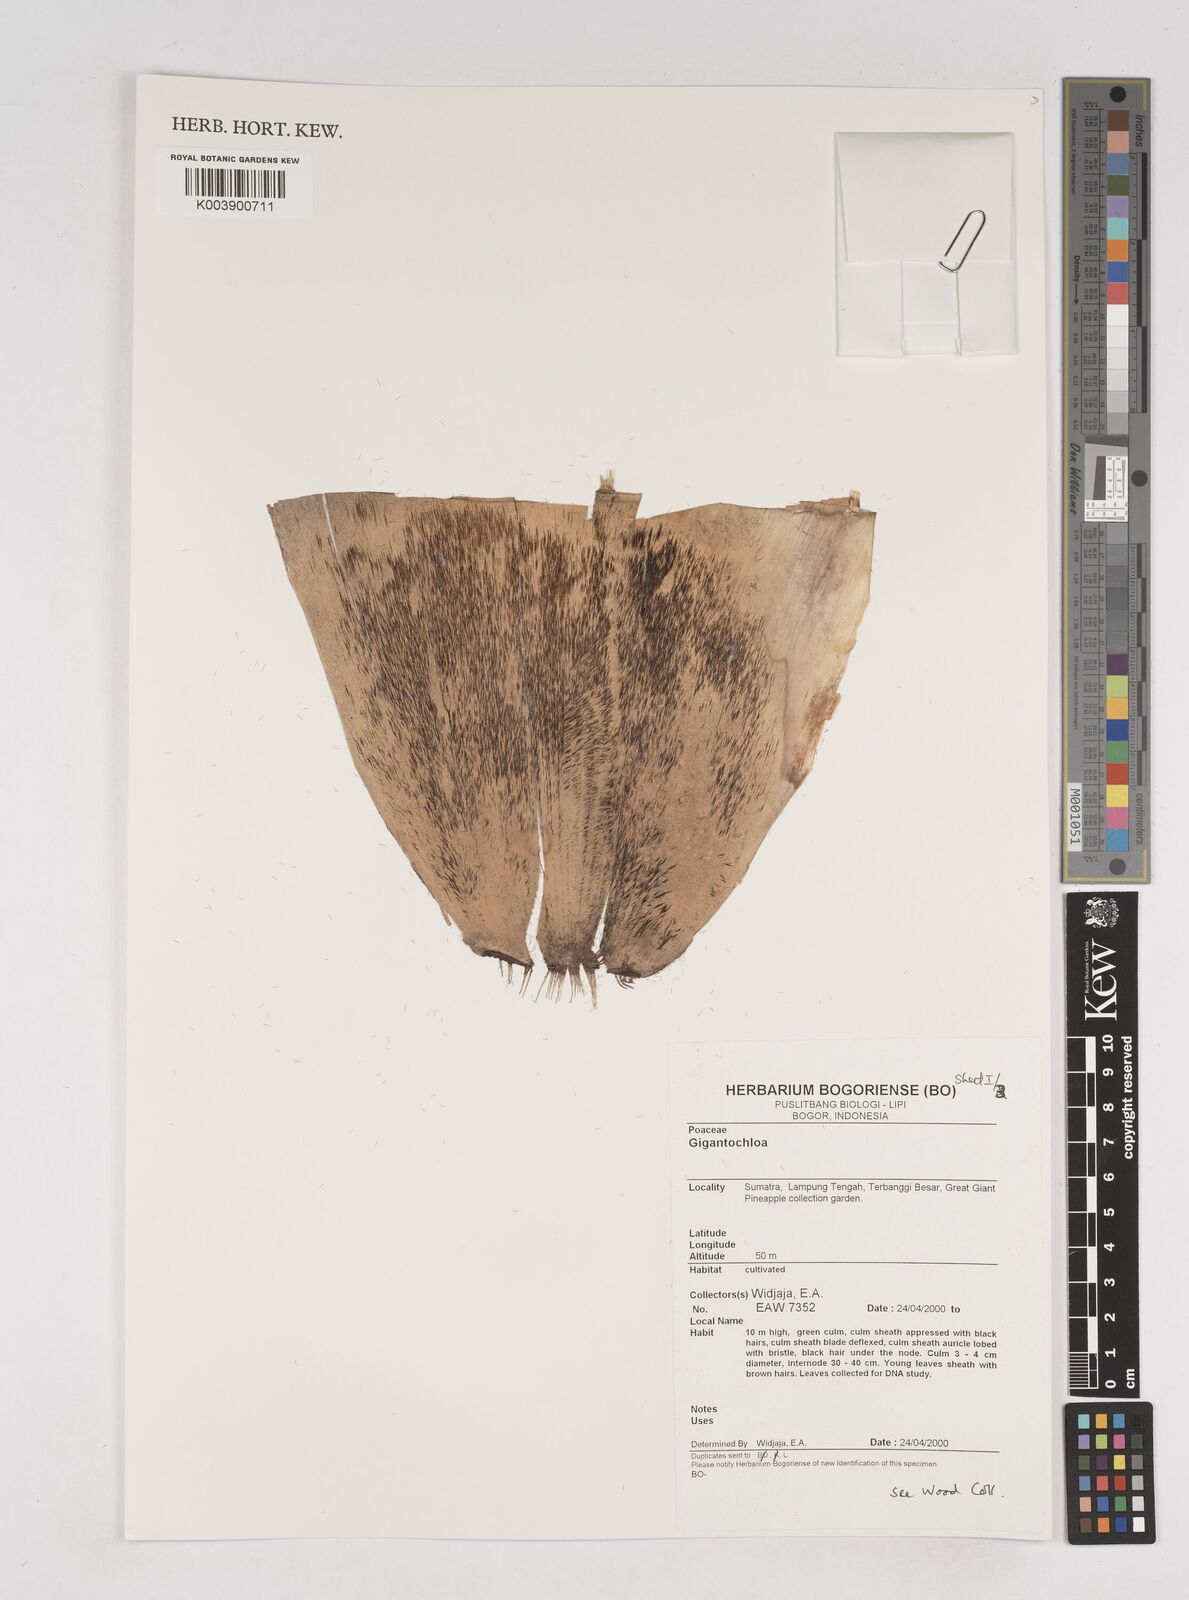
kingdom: Plantae
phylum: Tracheophyta
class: Liliopsida
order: Poales
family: Poaceae
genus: Gigantochloa
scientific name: Gigantochloa
